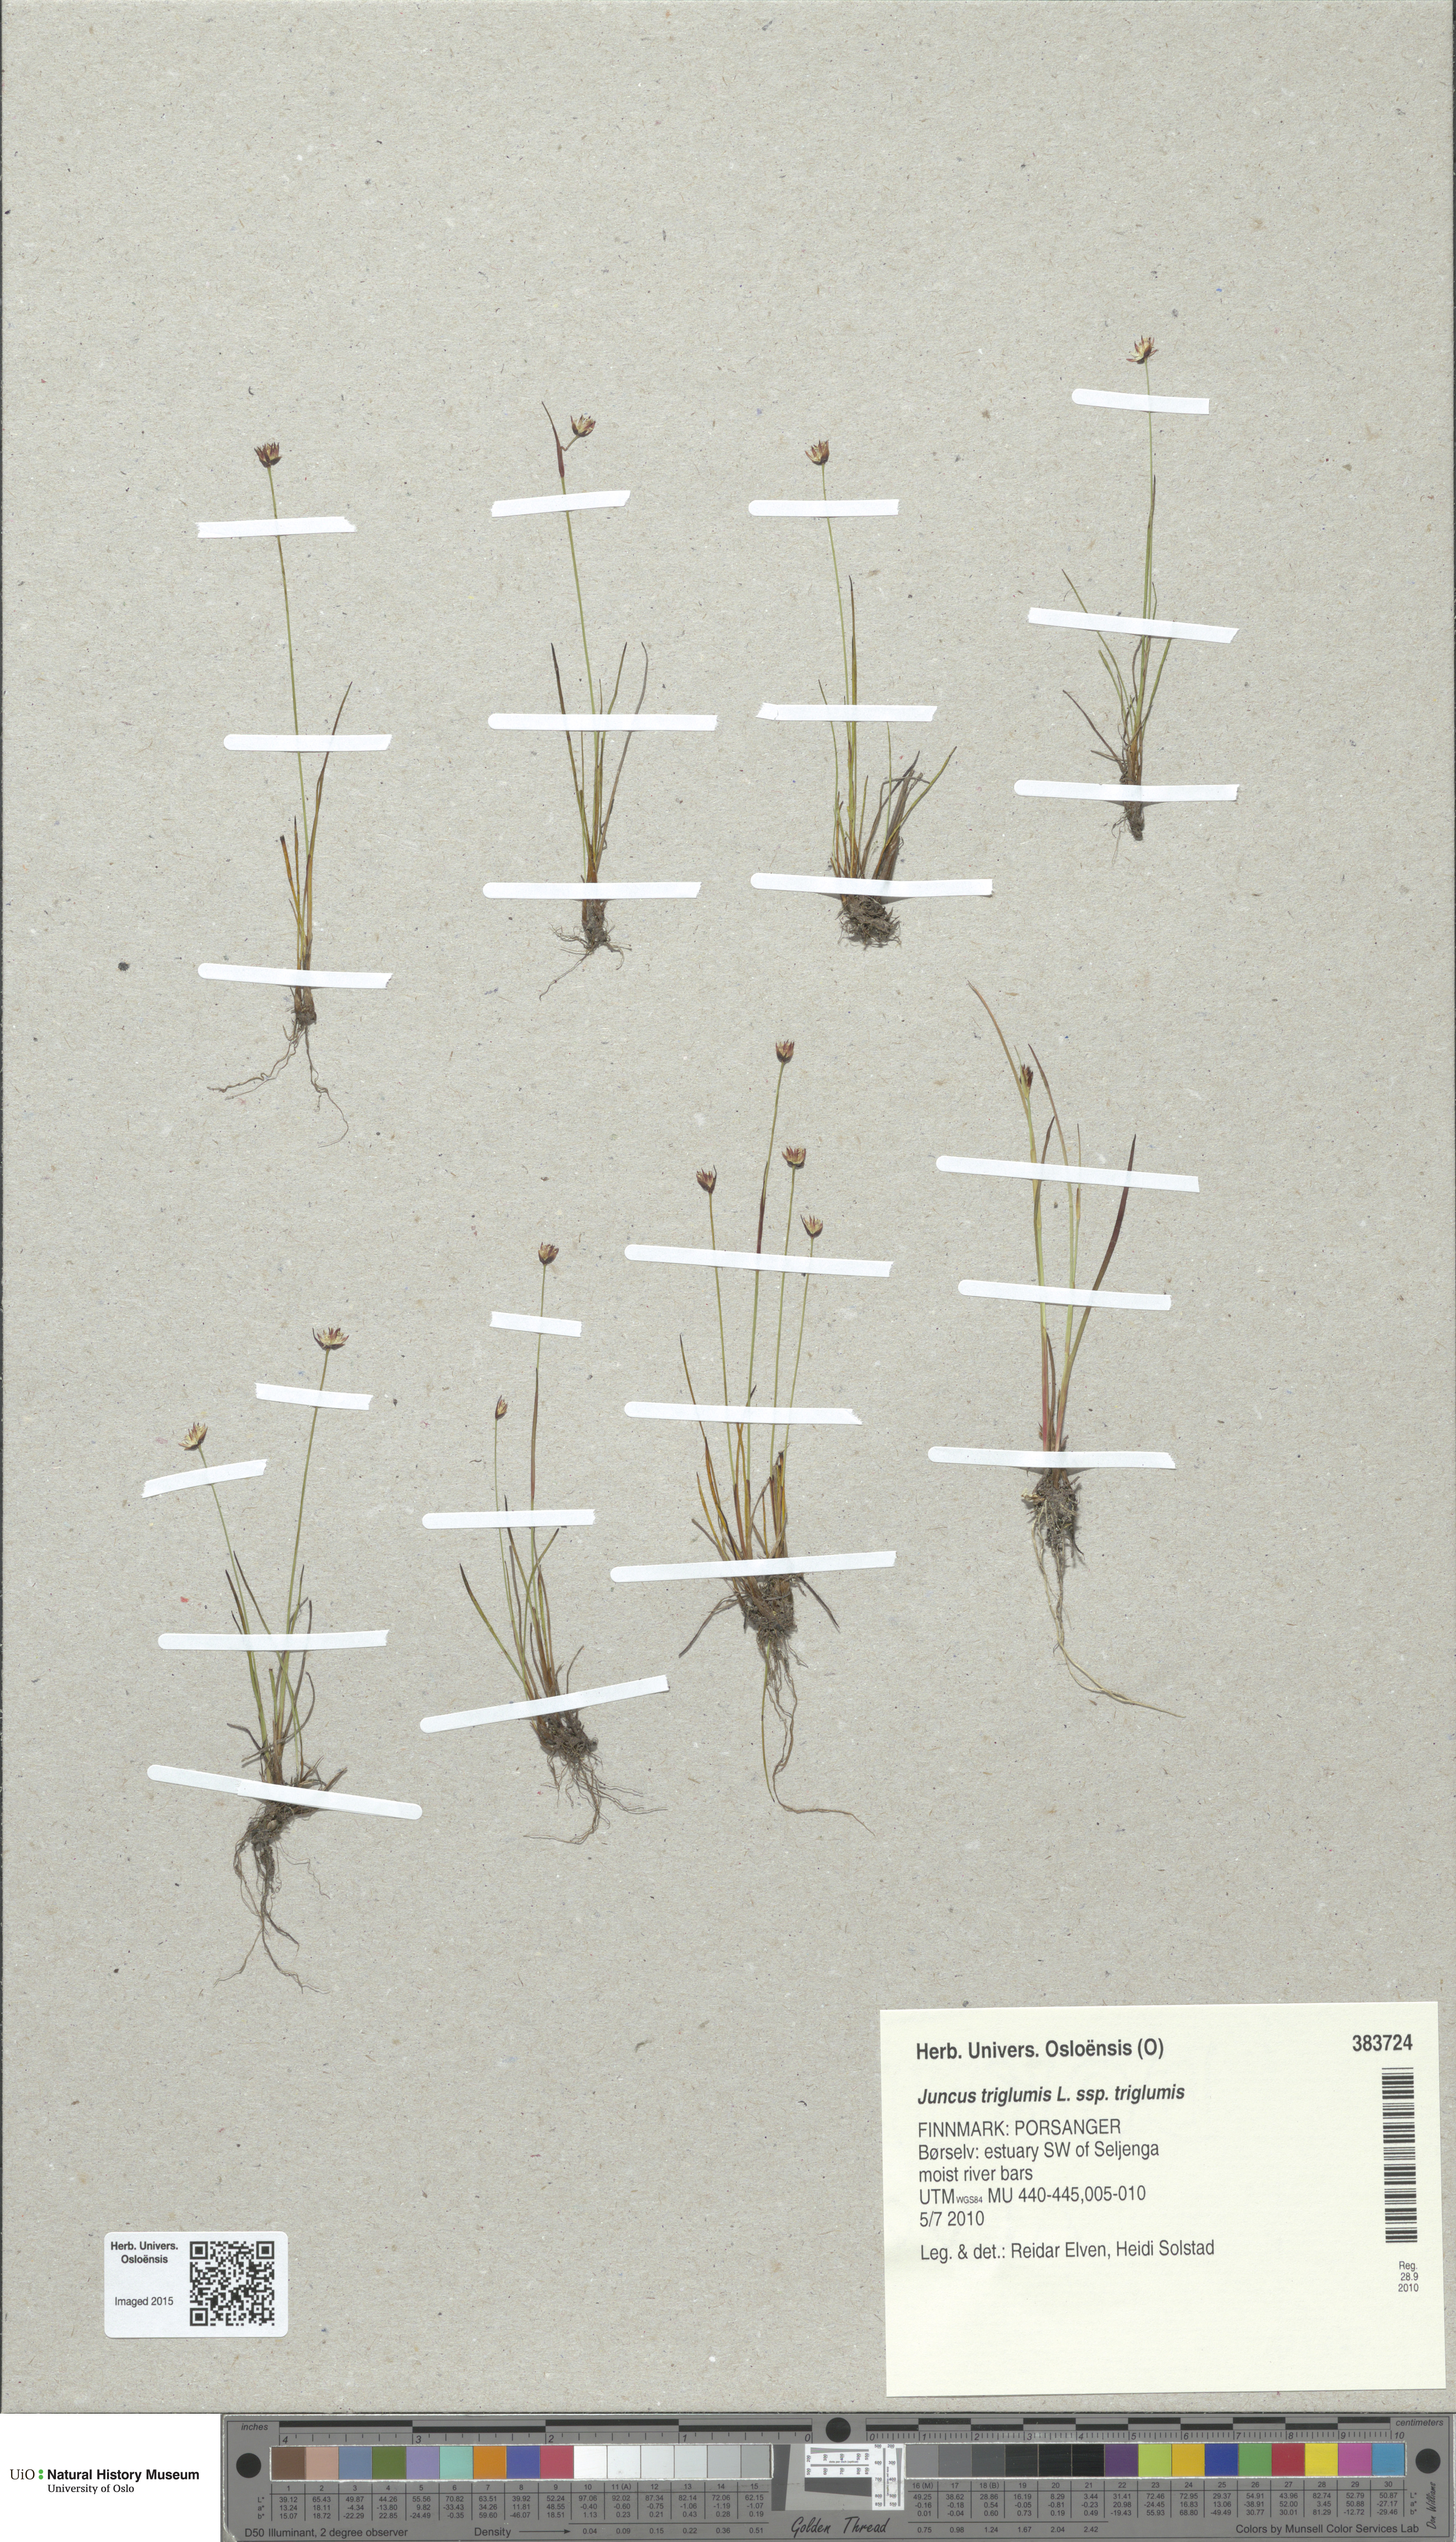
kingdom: Plantae
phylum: Tracheophyta
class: Liliopsida
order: Poales
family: Juncaceae
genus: Juncus
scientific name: Juncus triglumis
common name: Three-flowered rush
